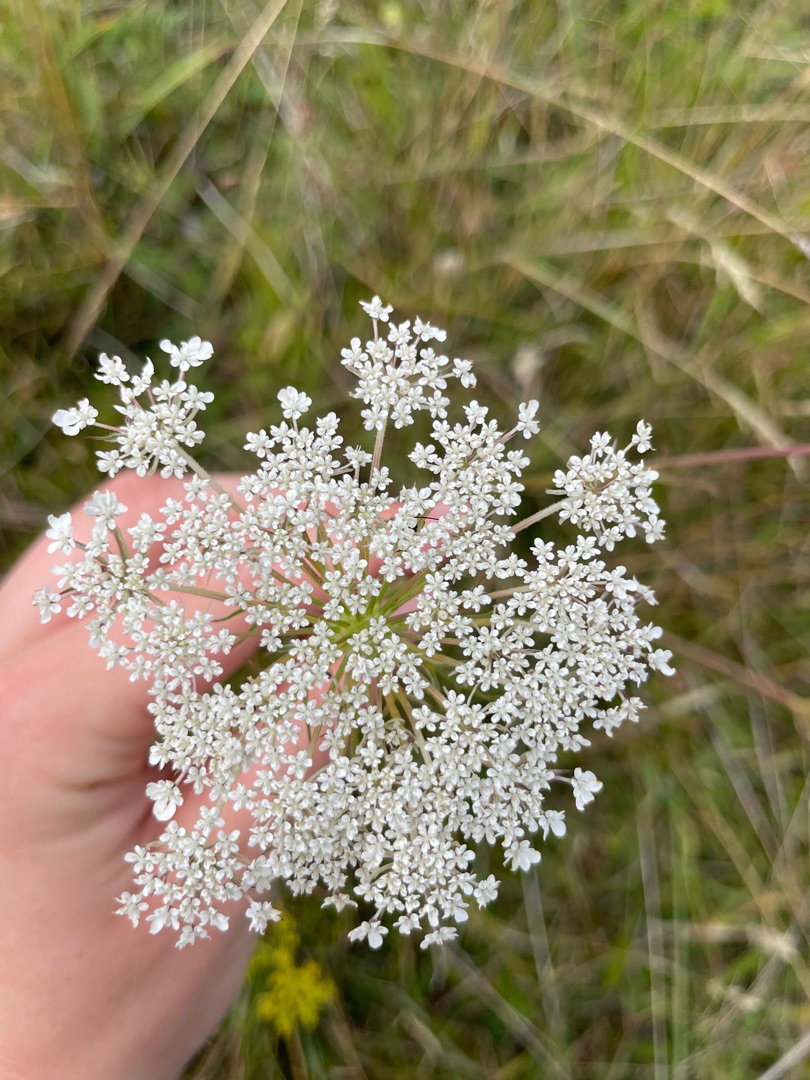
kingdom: Plantae
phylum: Tracheophyta
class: Magnoliopsida
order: Apiales
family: Apiaceae
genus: Daucus
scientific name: Daucus carota
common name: Vild gulerod
